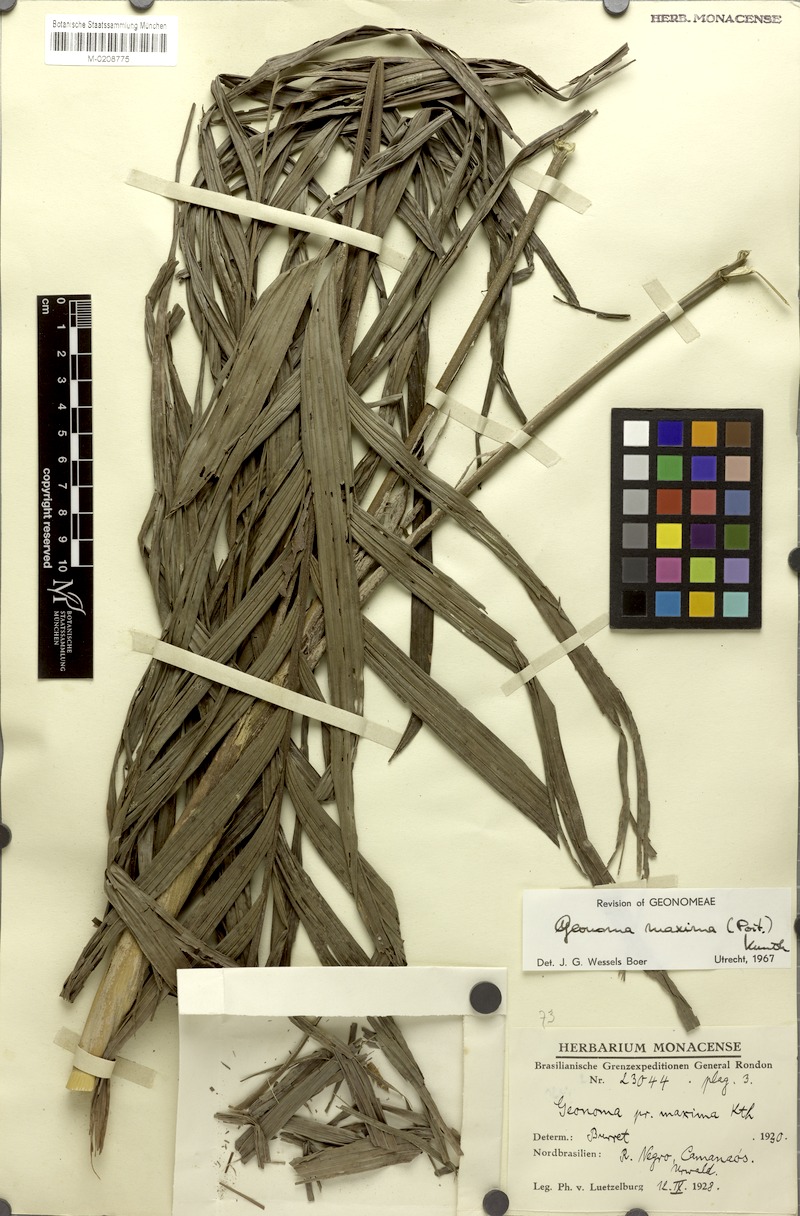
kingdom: Plantae
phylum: Tracheophyta
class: Liliopsida
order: Arecales
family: Arecaceae
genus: Geonoma
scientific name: Geonoma maxima
